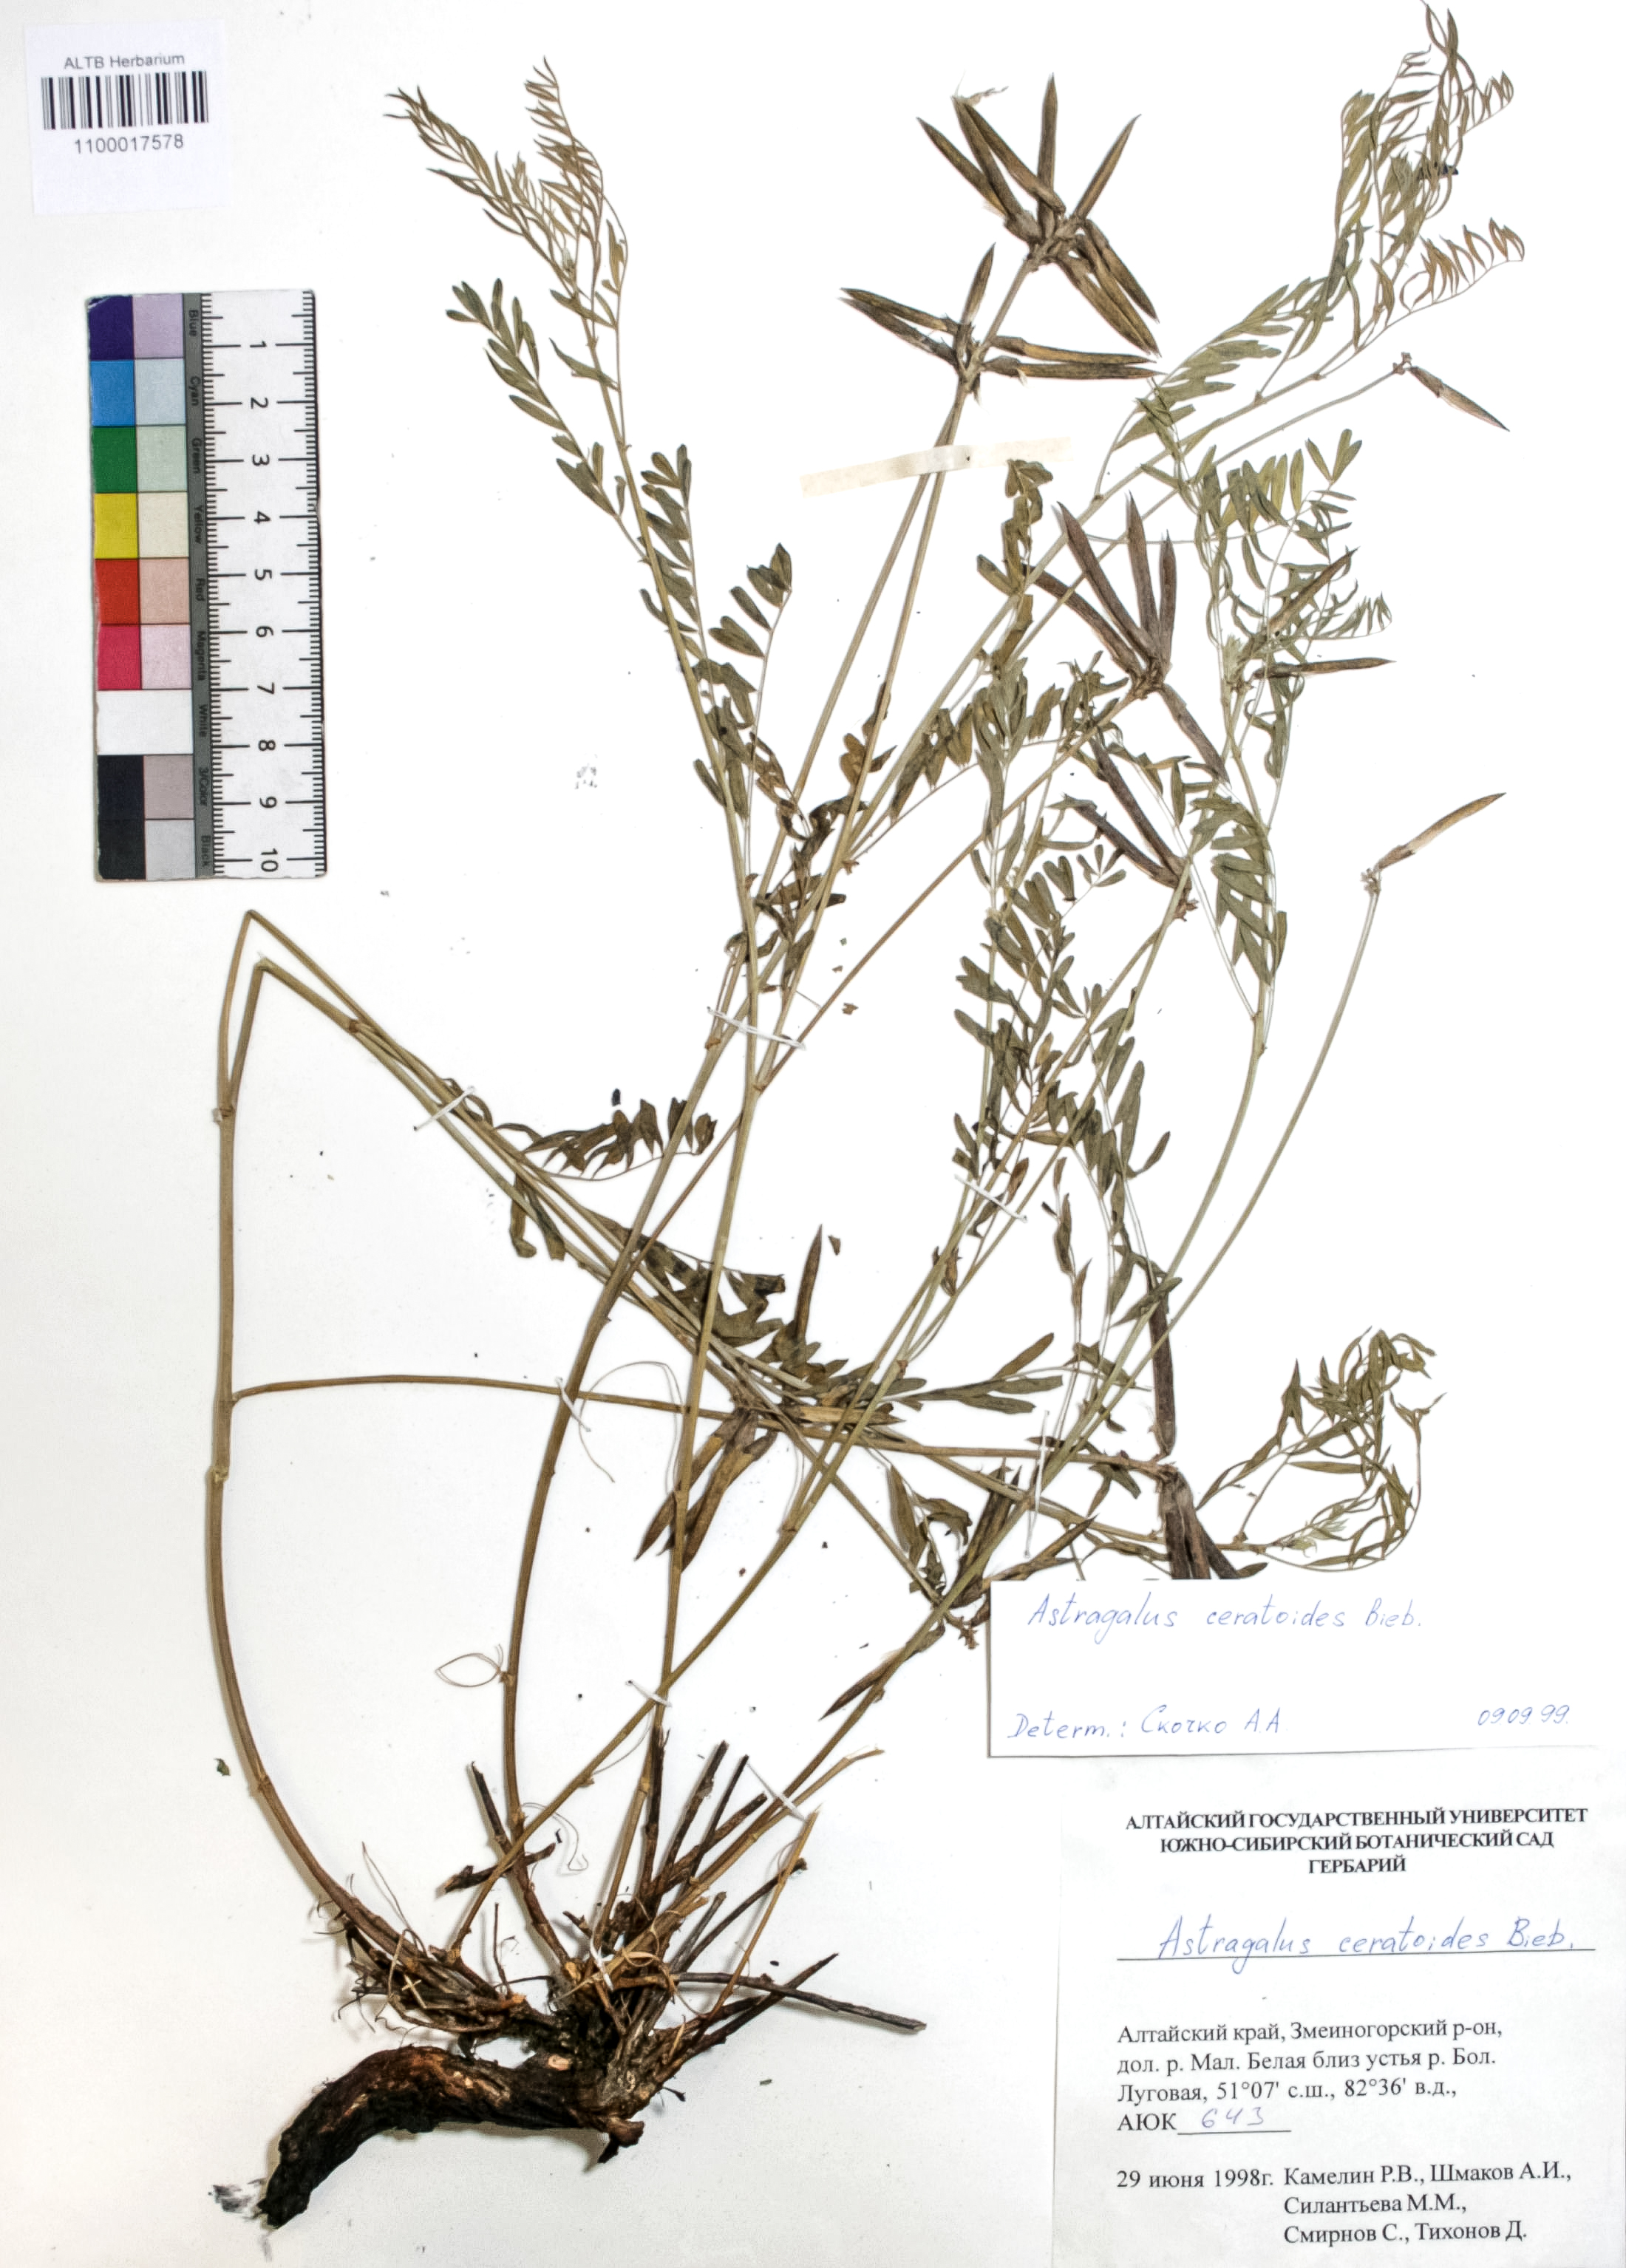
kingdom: Plantae
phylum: Tracheophyta
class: Magnoliopsida
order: Fabales
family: Fabaceae
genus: Astragalus
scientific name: Astragalus ceratoides
